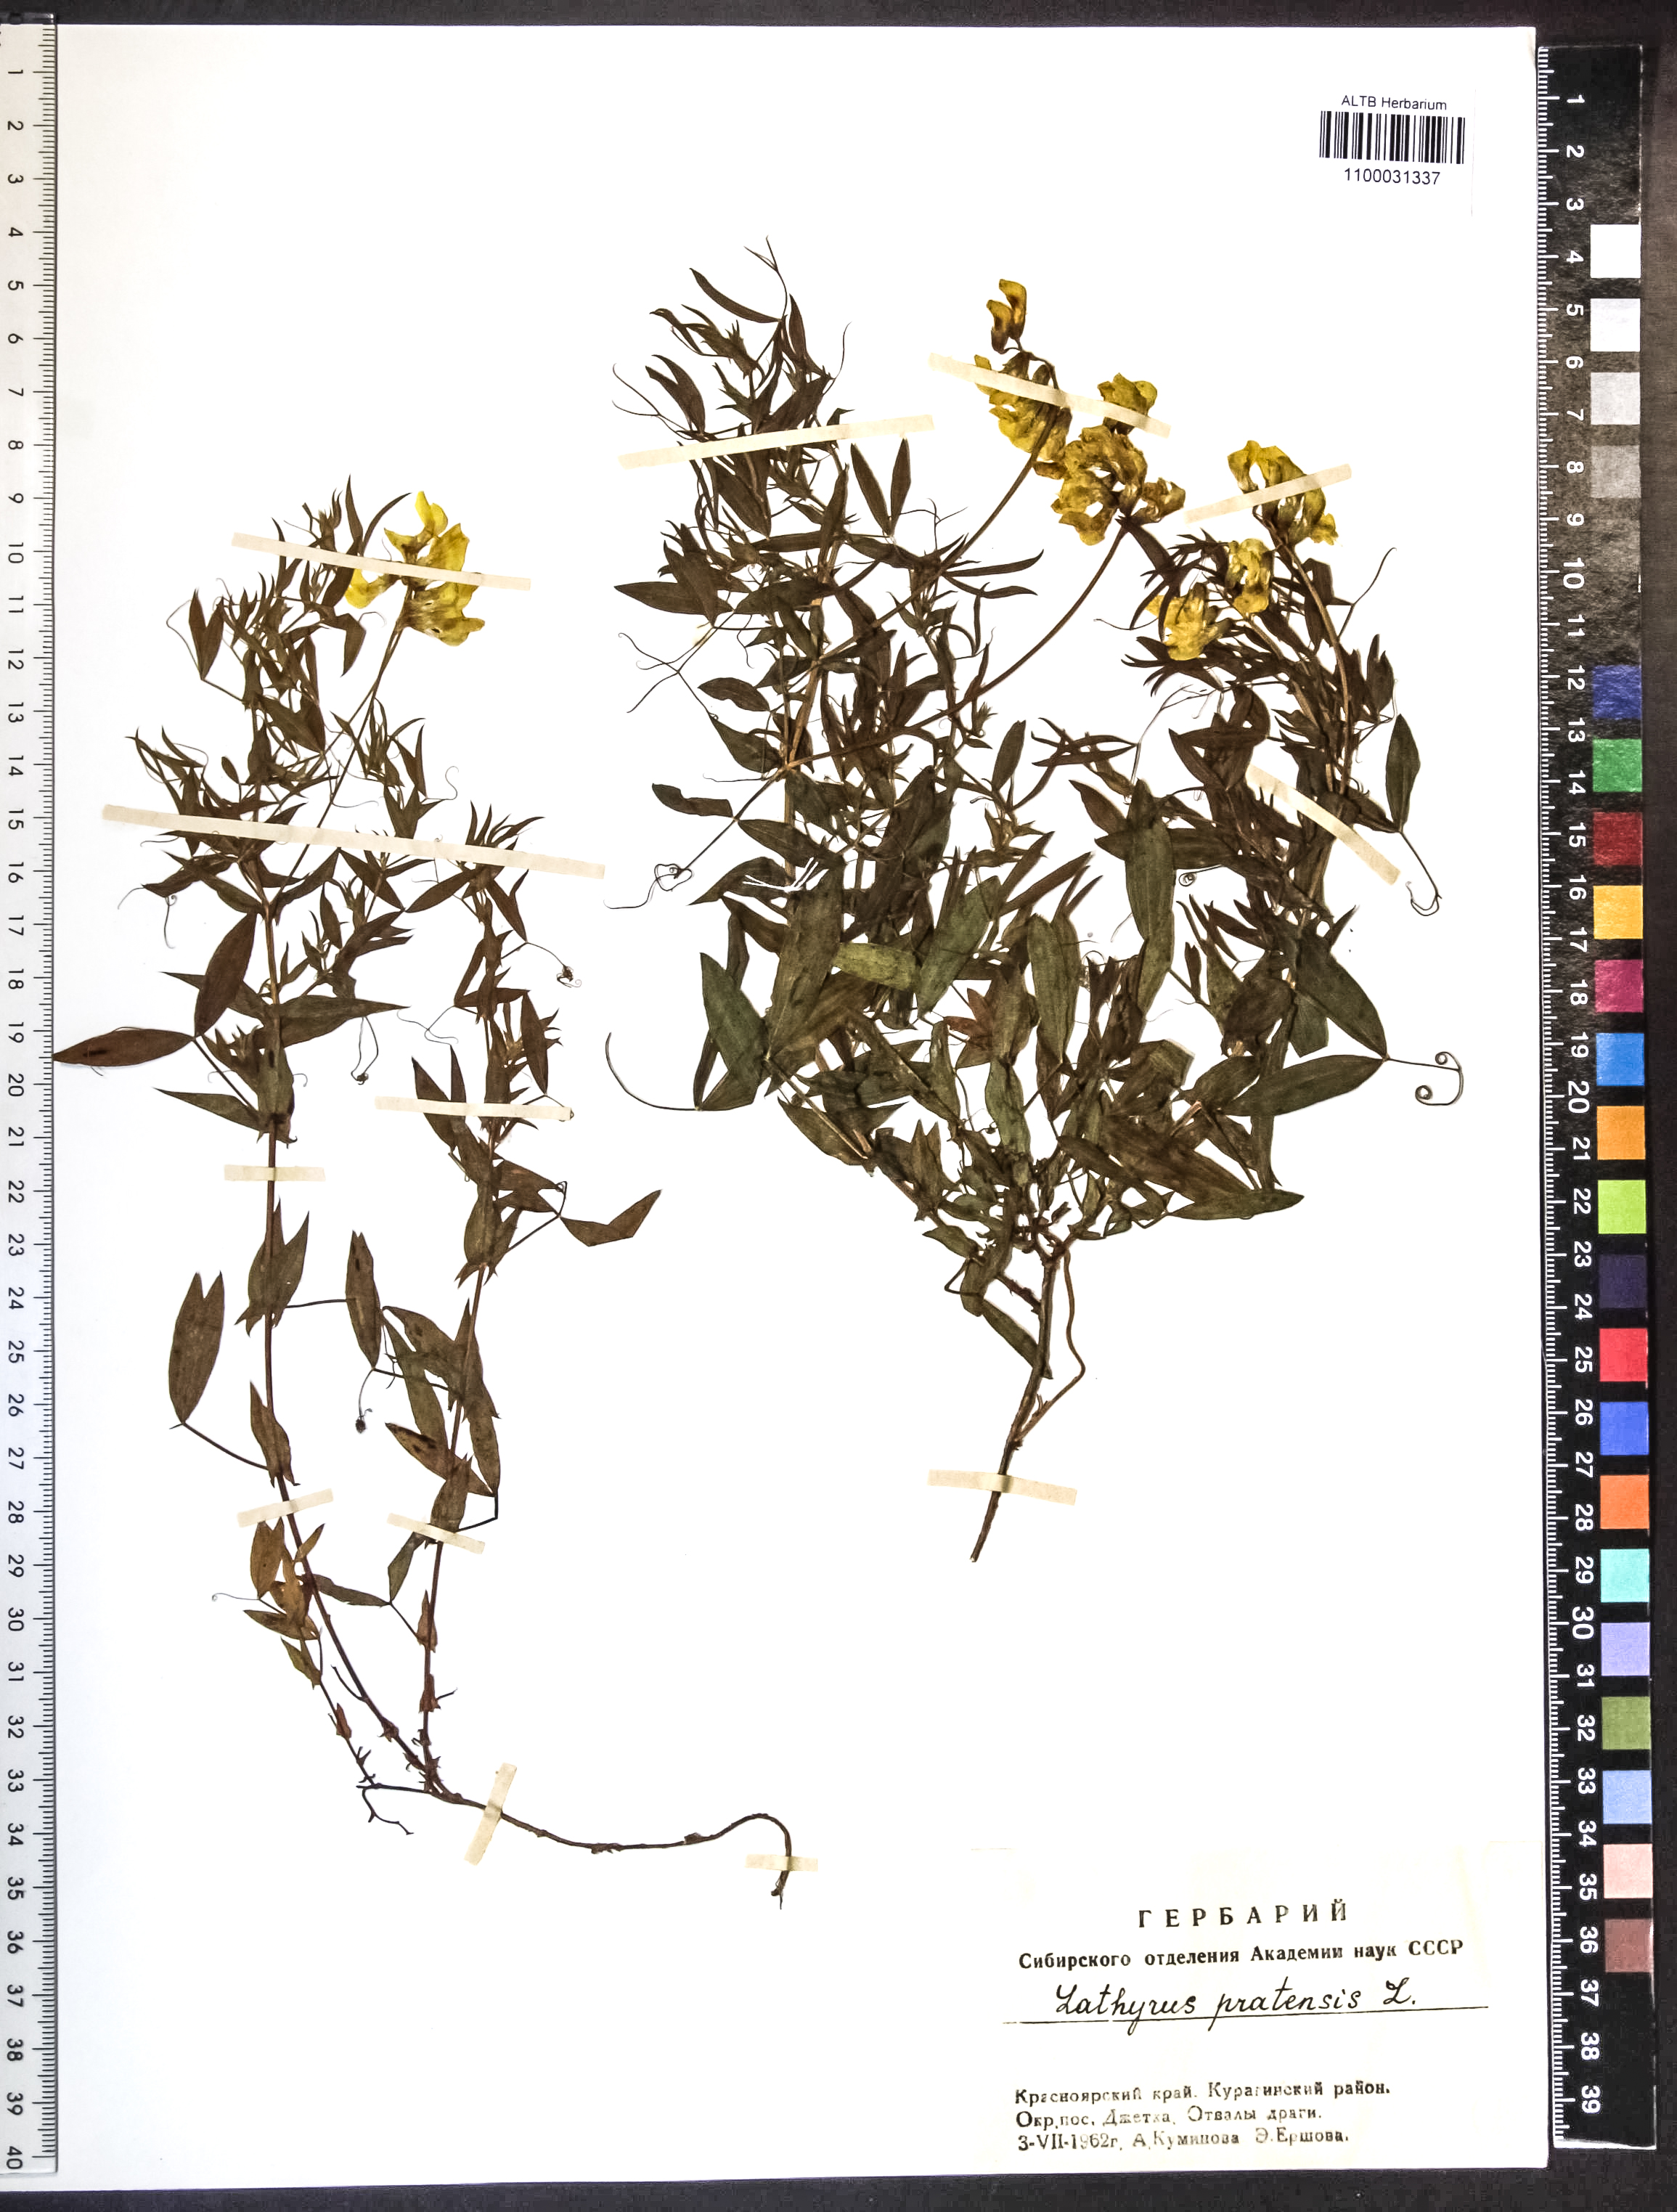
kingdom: Plantae
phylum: Tracheophyta
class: Magnoliopsida
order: Fabales
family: Fabaceae
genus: Lathyrus
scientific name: Lathyrus pratensis
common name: Meadow vetchling
